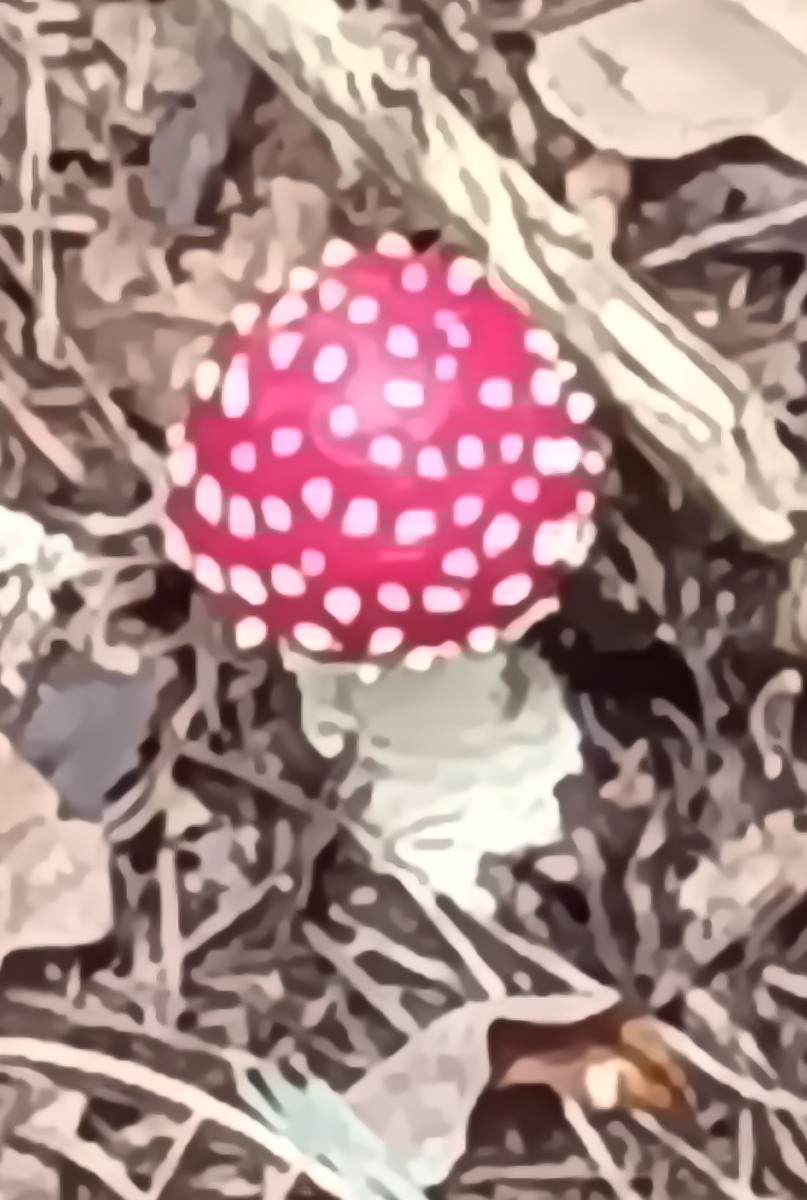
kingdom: Fungi
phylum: Basidiomycota
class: Agaricomycetes
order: Agaricales
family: Amanitaceae
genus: Amanita
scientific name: Amanita muscaria
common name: rød fluesvamp
